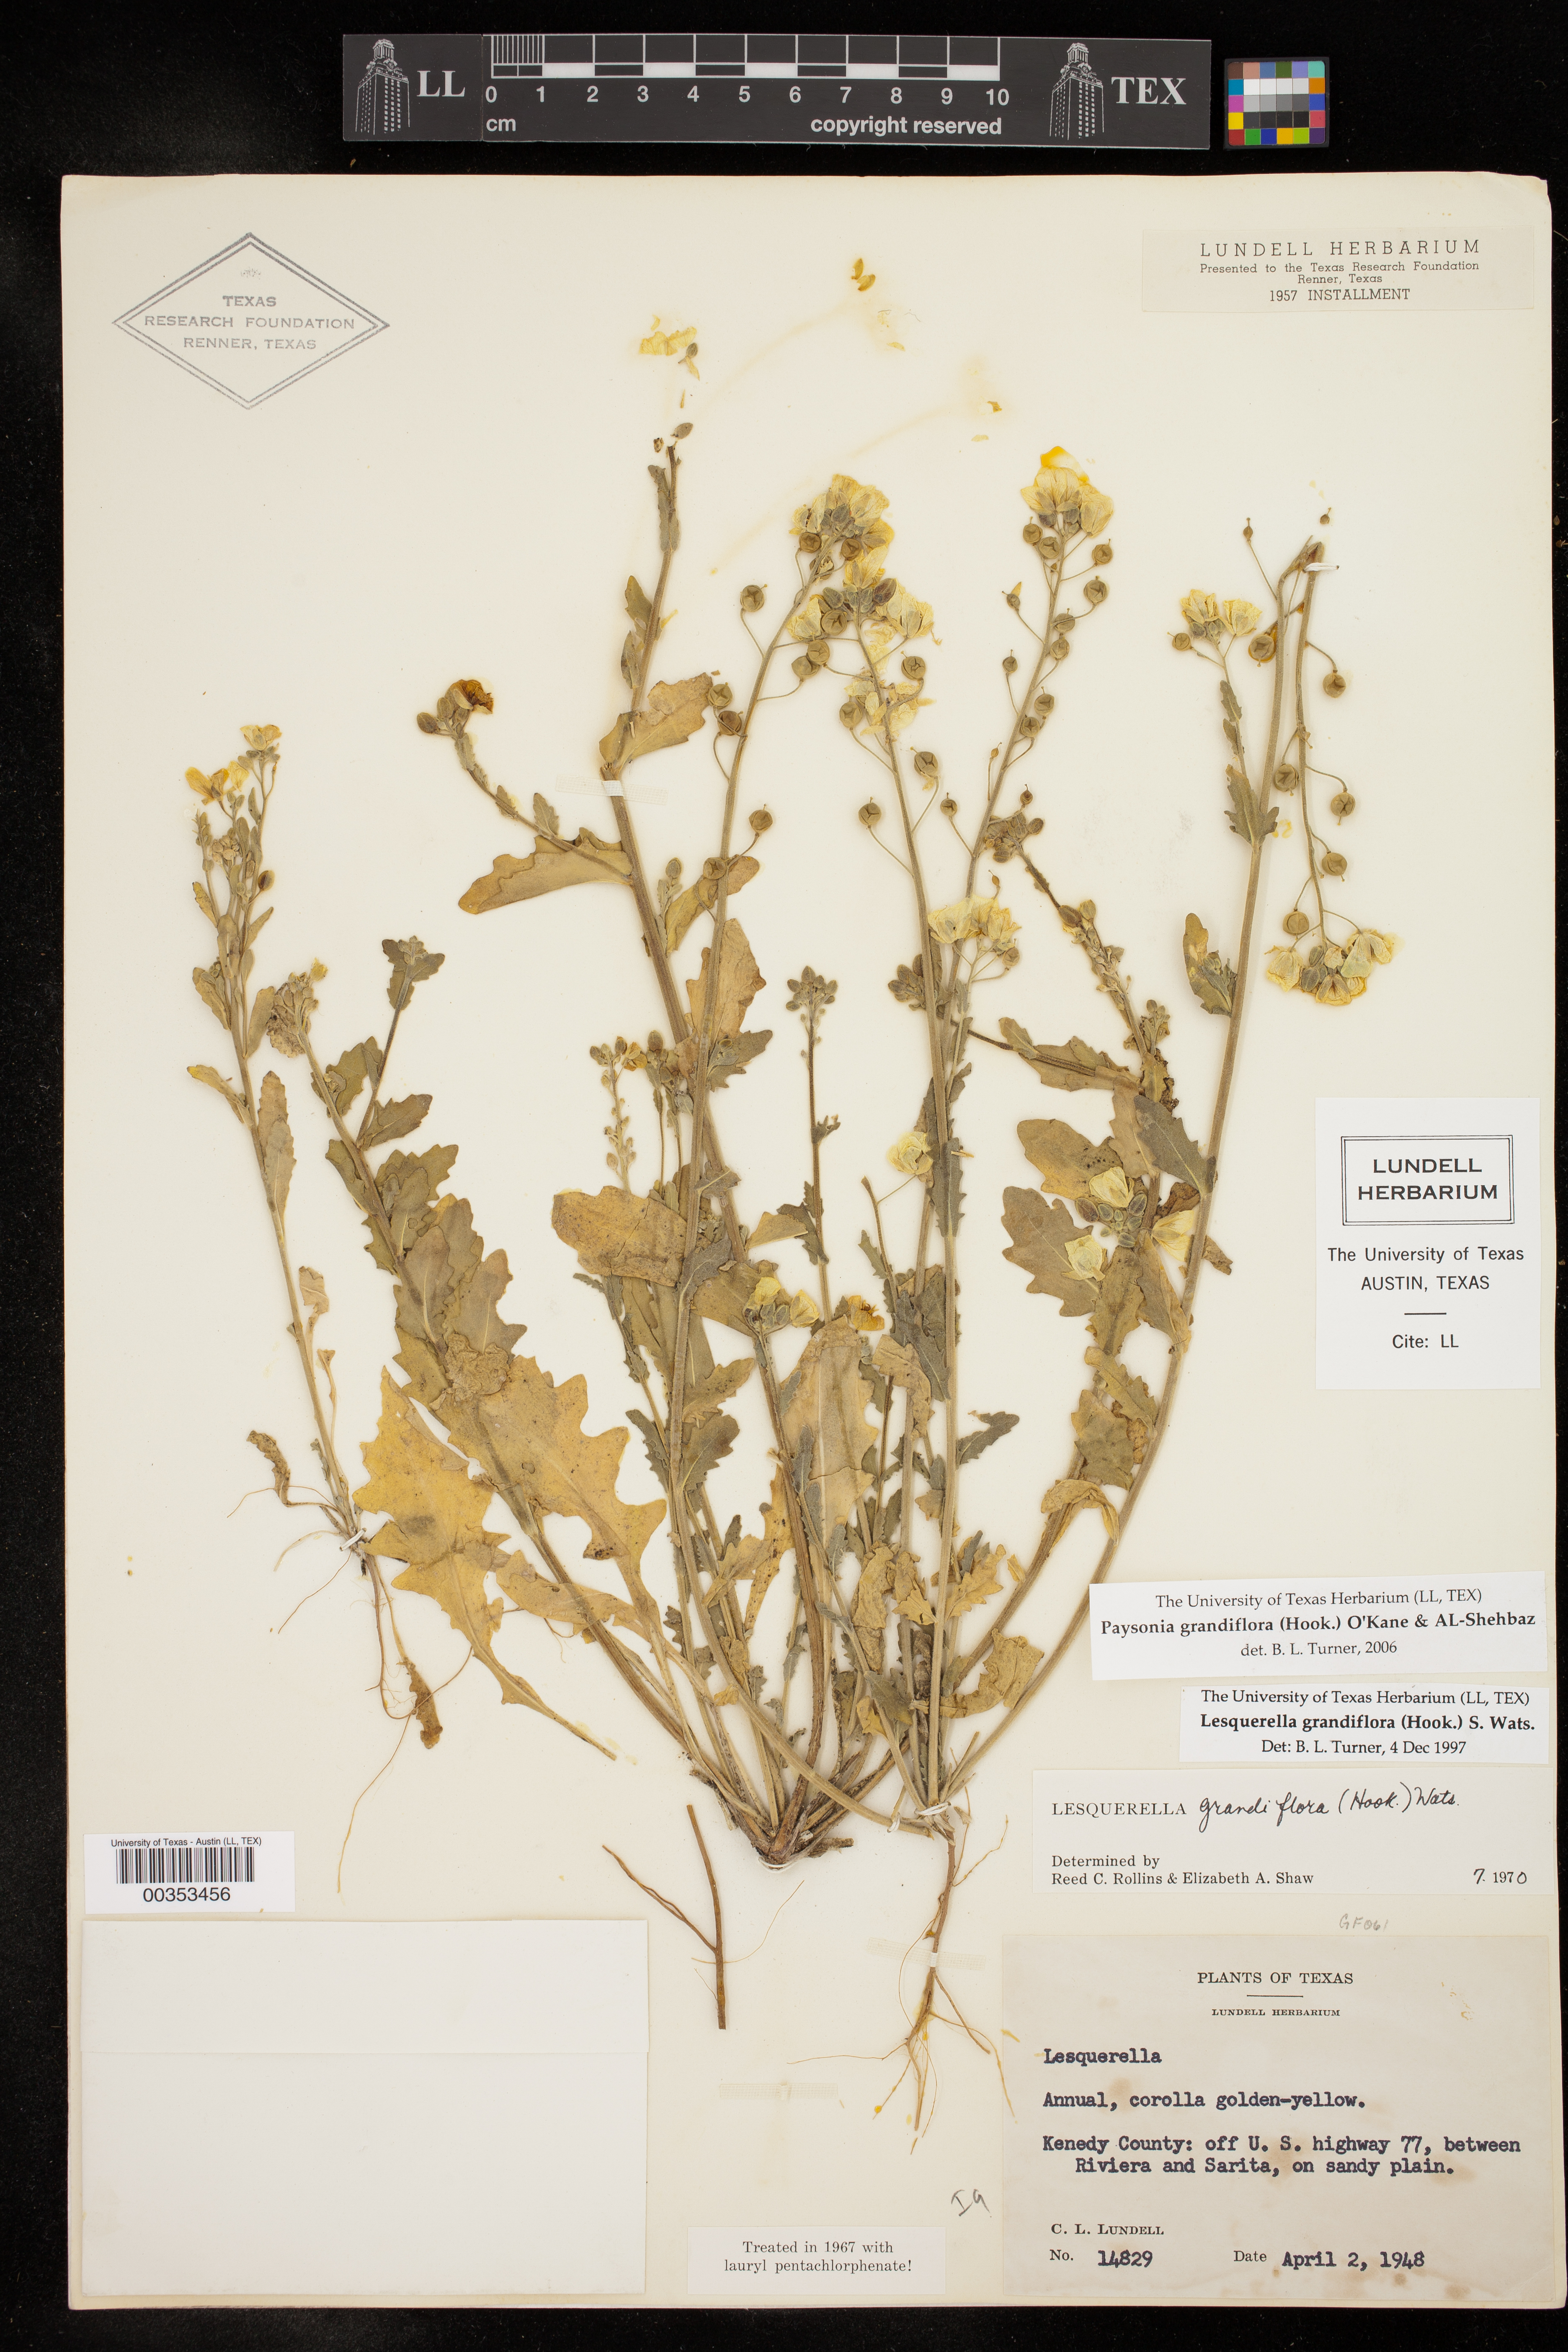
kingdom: Plantae
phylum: Tracheophyta
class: Magnoliopsida
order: Brassicales
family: Brassicaceae
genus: Paysonia
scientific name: Paysonia grandiflora
